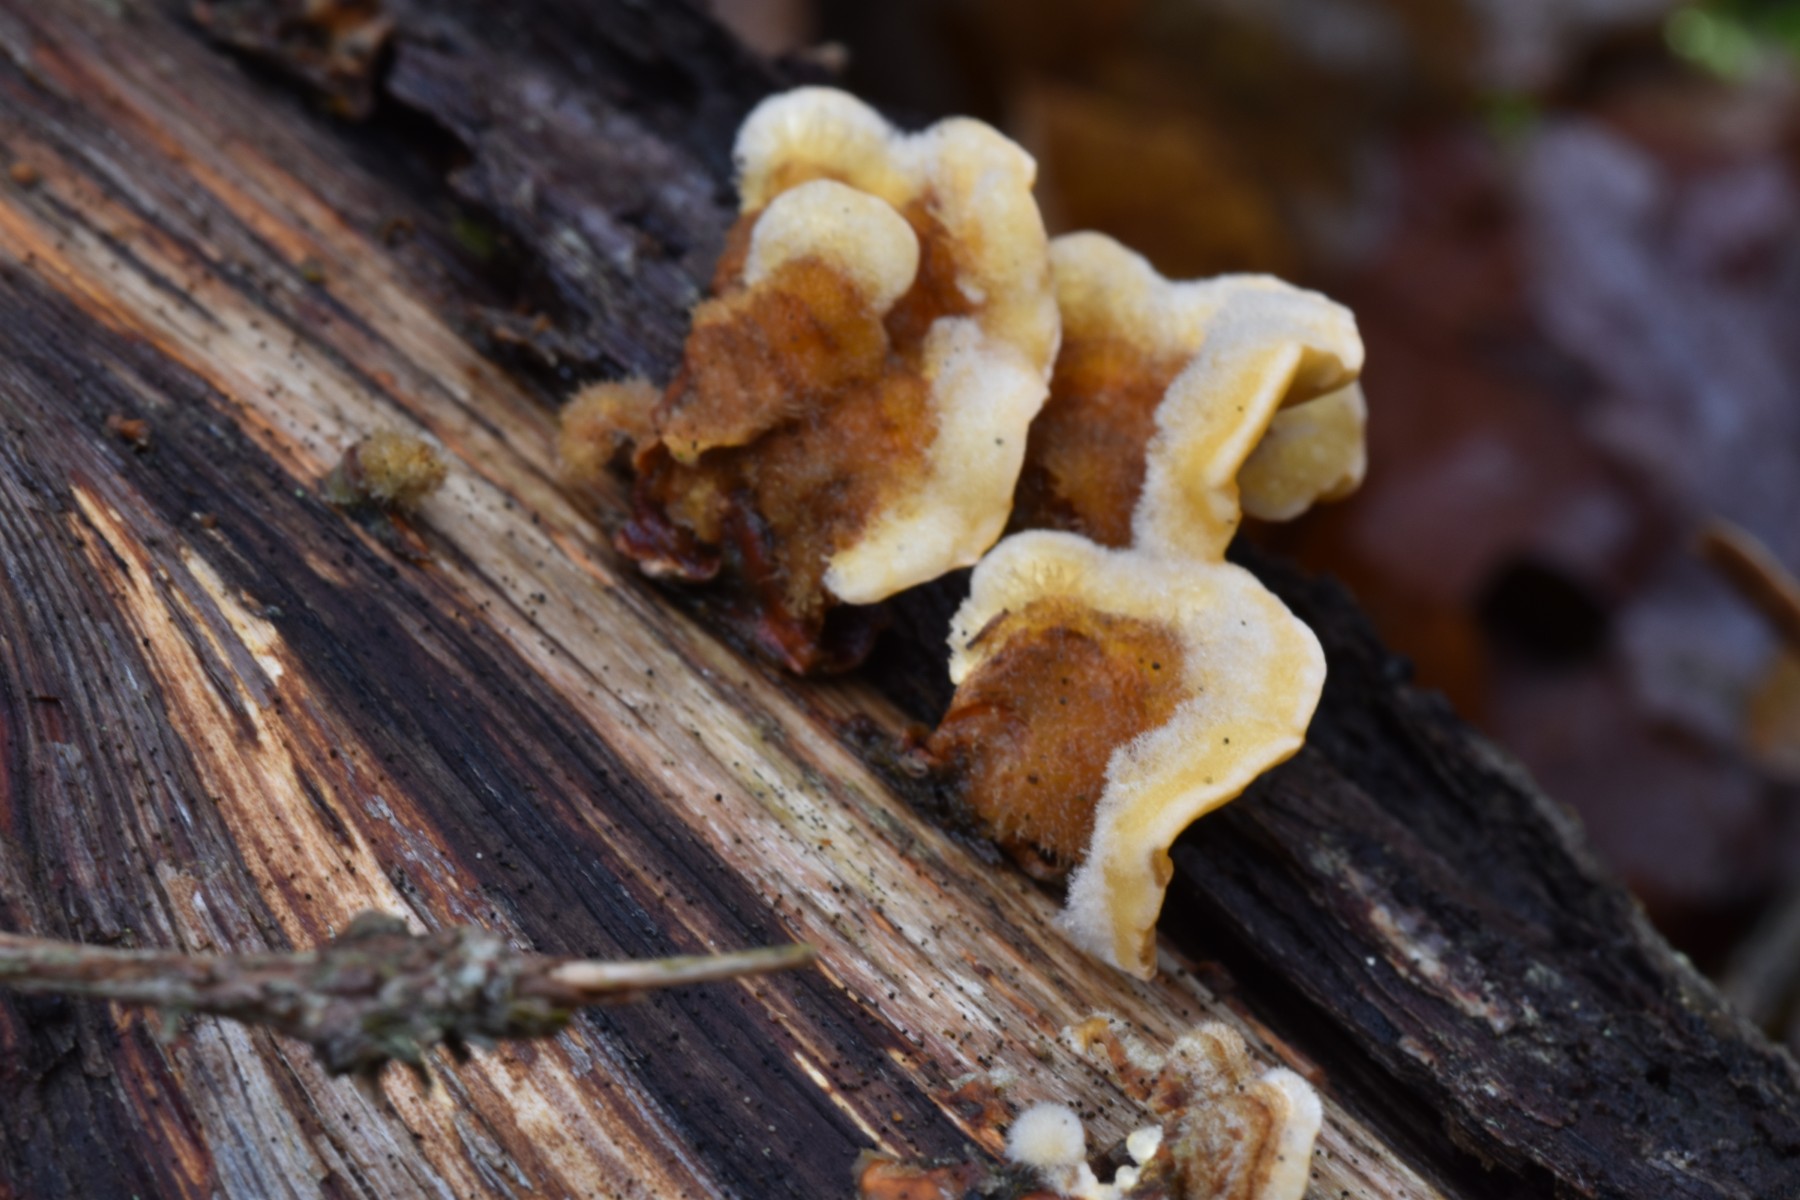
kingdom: Fungi
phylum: Basidiomycota
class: Agaricomycetes
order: Russulales
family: Stereaceae
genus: Stereum
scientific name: Stereum hirsutum
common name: håret lædersvamp
